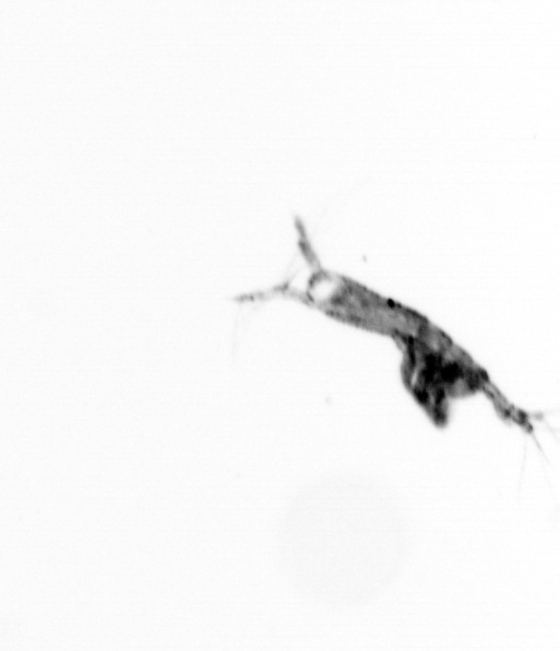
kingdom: Animalia
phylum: Arthropoda
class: Copepoda
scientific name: Copepoda
